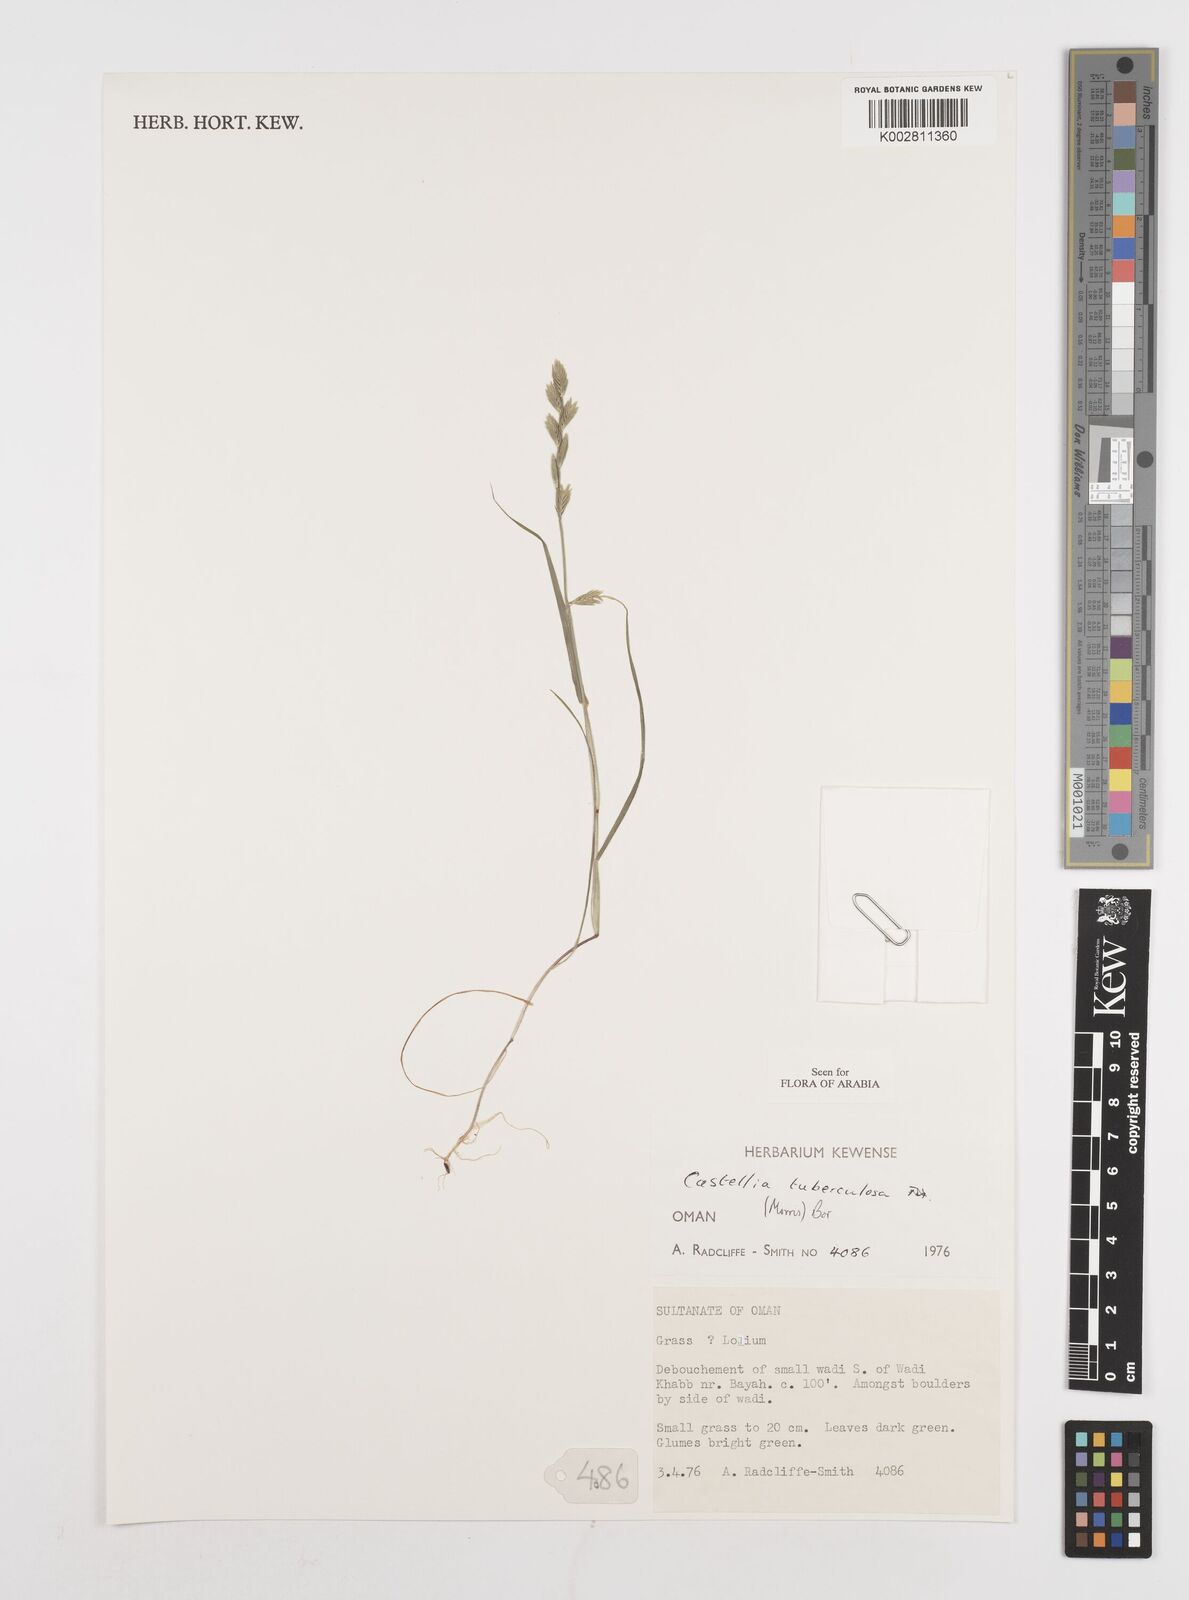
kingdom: Plantae
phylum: Tracheophyta
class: Liliopsida
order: Poales
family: Poaceae
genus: Castellia
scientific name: Castellia tuberculosa
